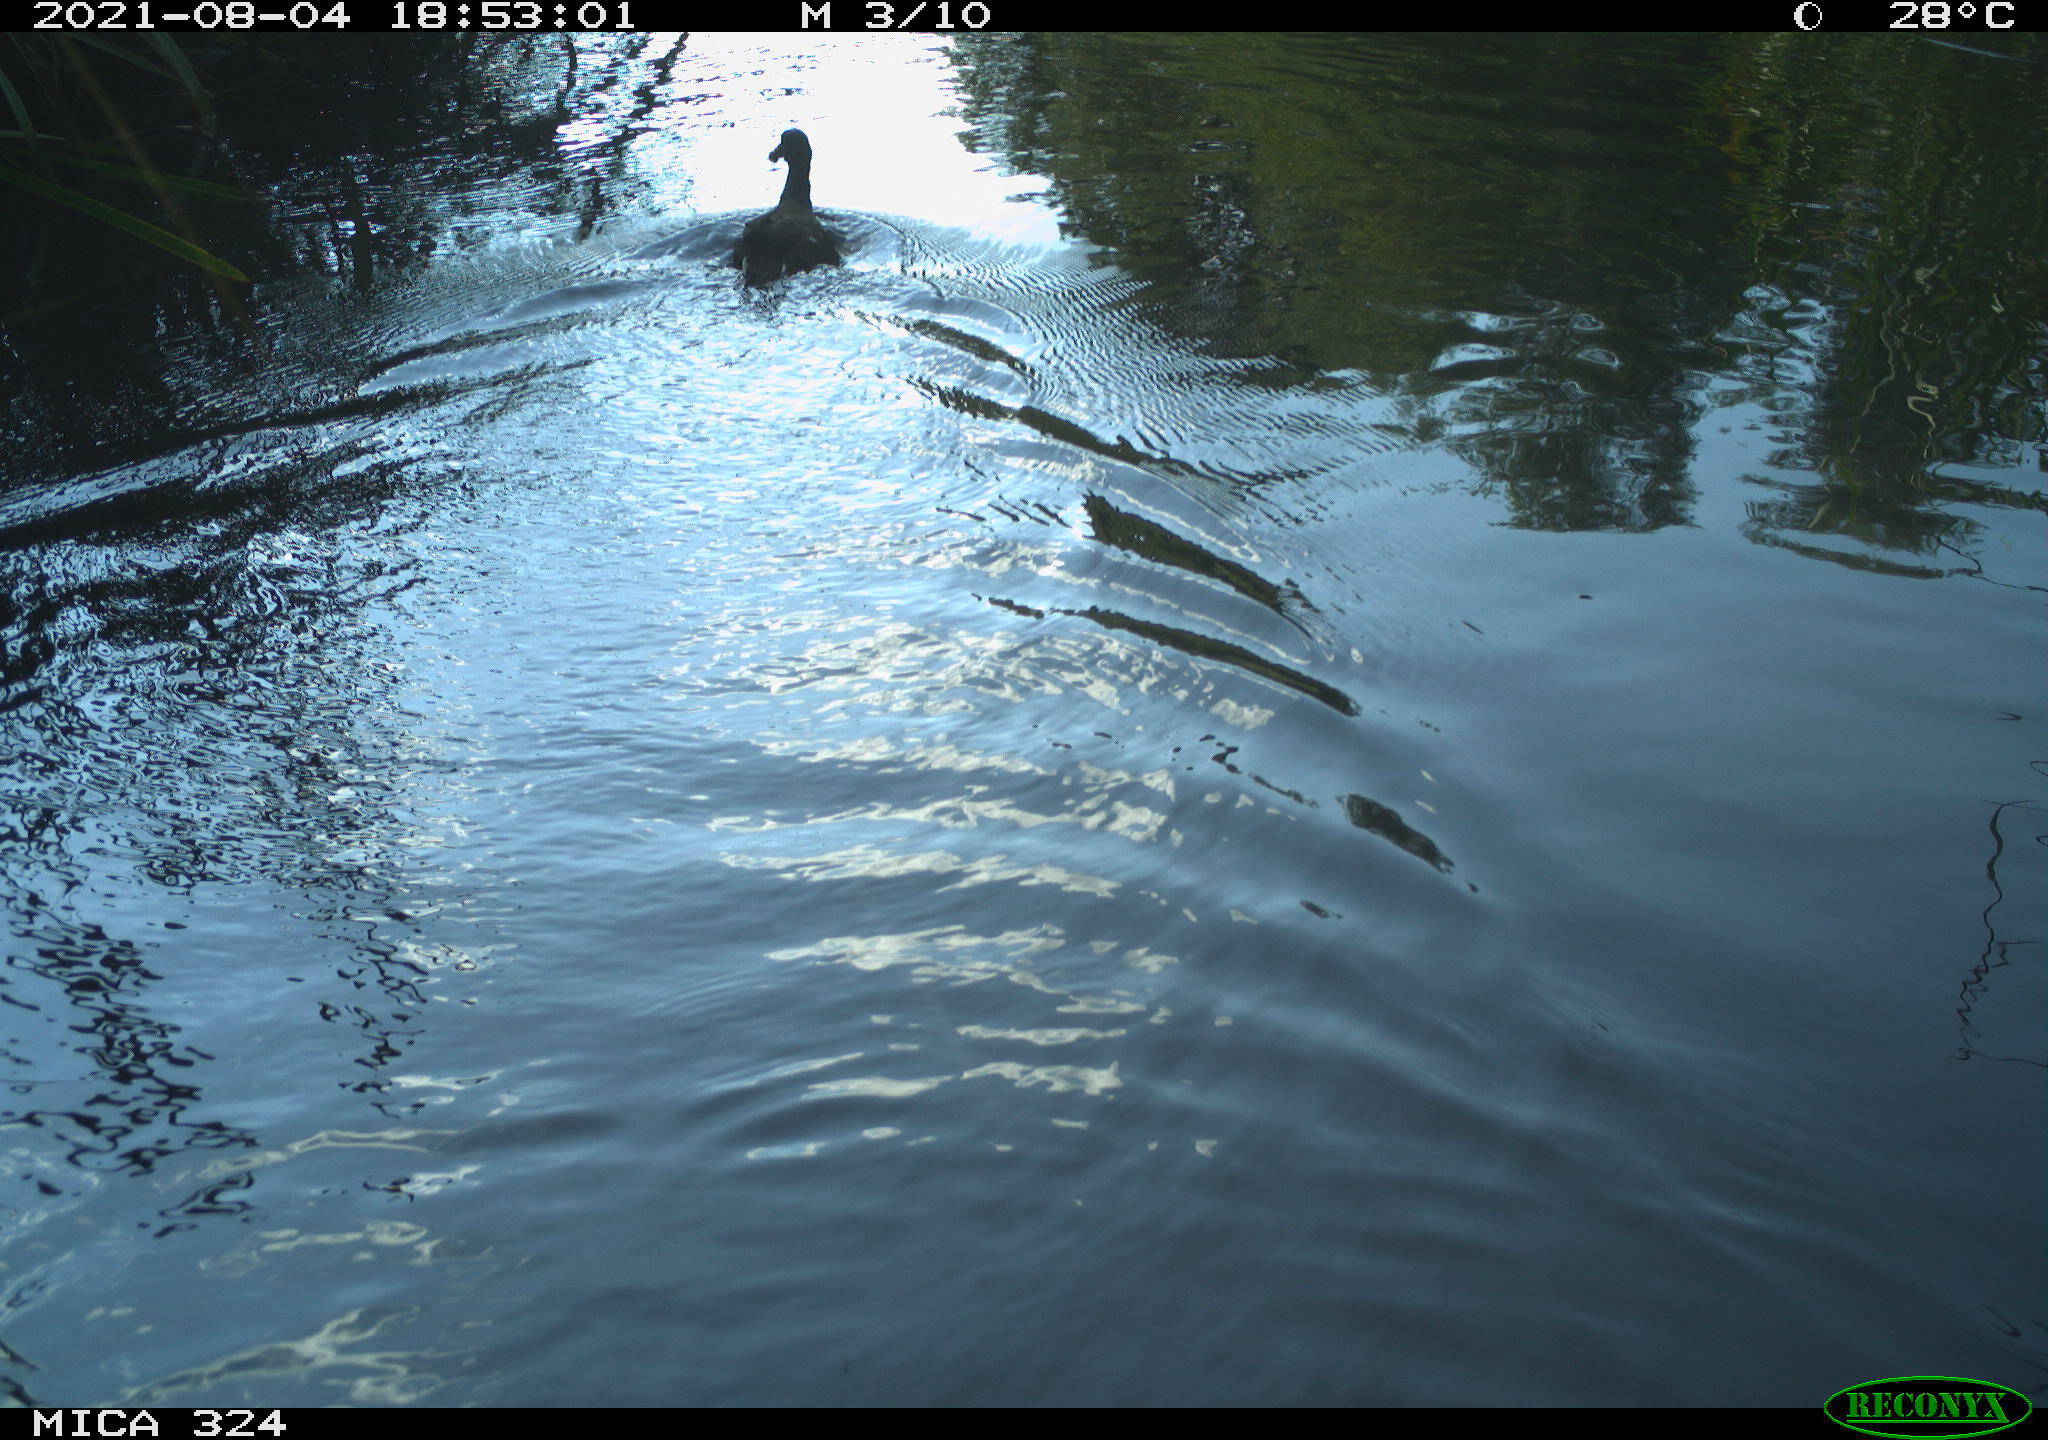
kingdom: Animalia
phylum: Chordata
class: Aves
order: Gruiformes
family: Rallidae
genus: Gallinula
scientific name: Gallinula chloropus
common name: Common moorhen
